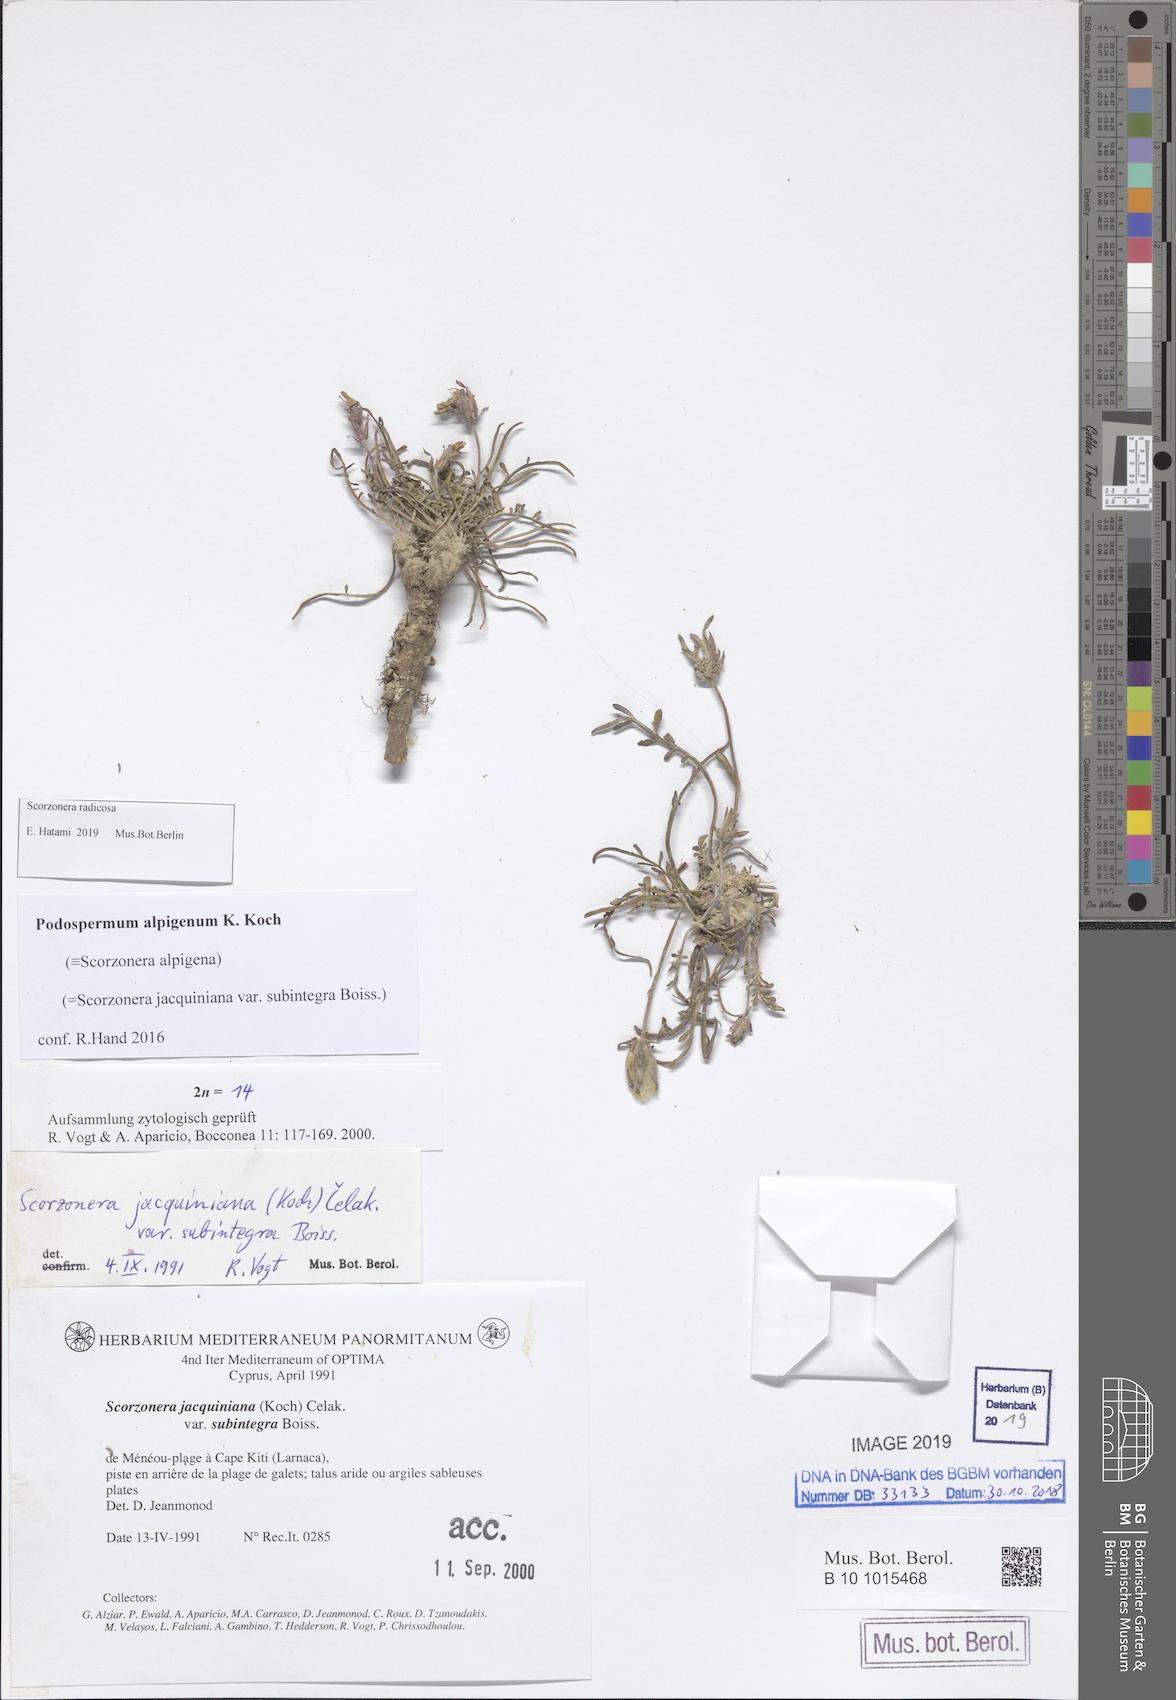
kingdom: Plantae
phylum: Tracheophyta
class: Magnoliopsida
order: Asterales
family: Asteraceae
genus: Scorzonera
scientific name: Scorzonera alpigena
